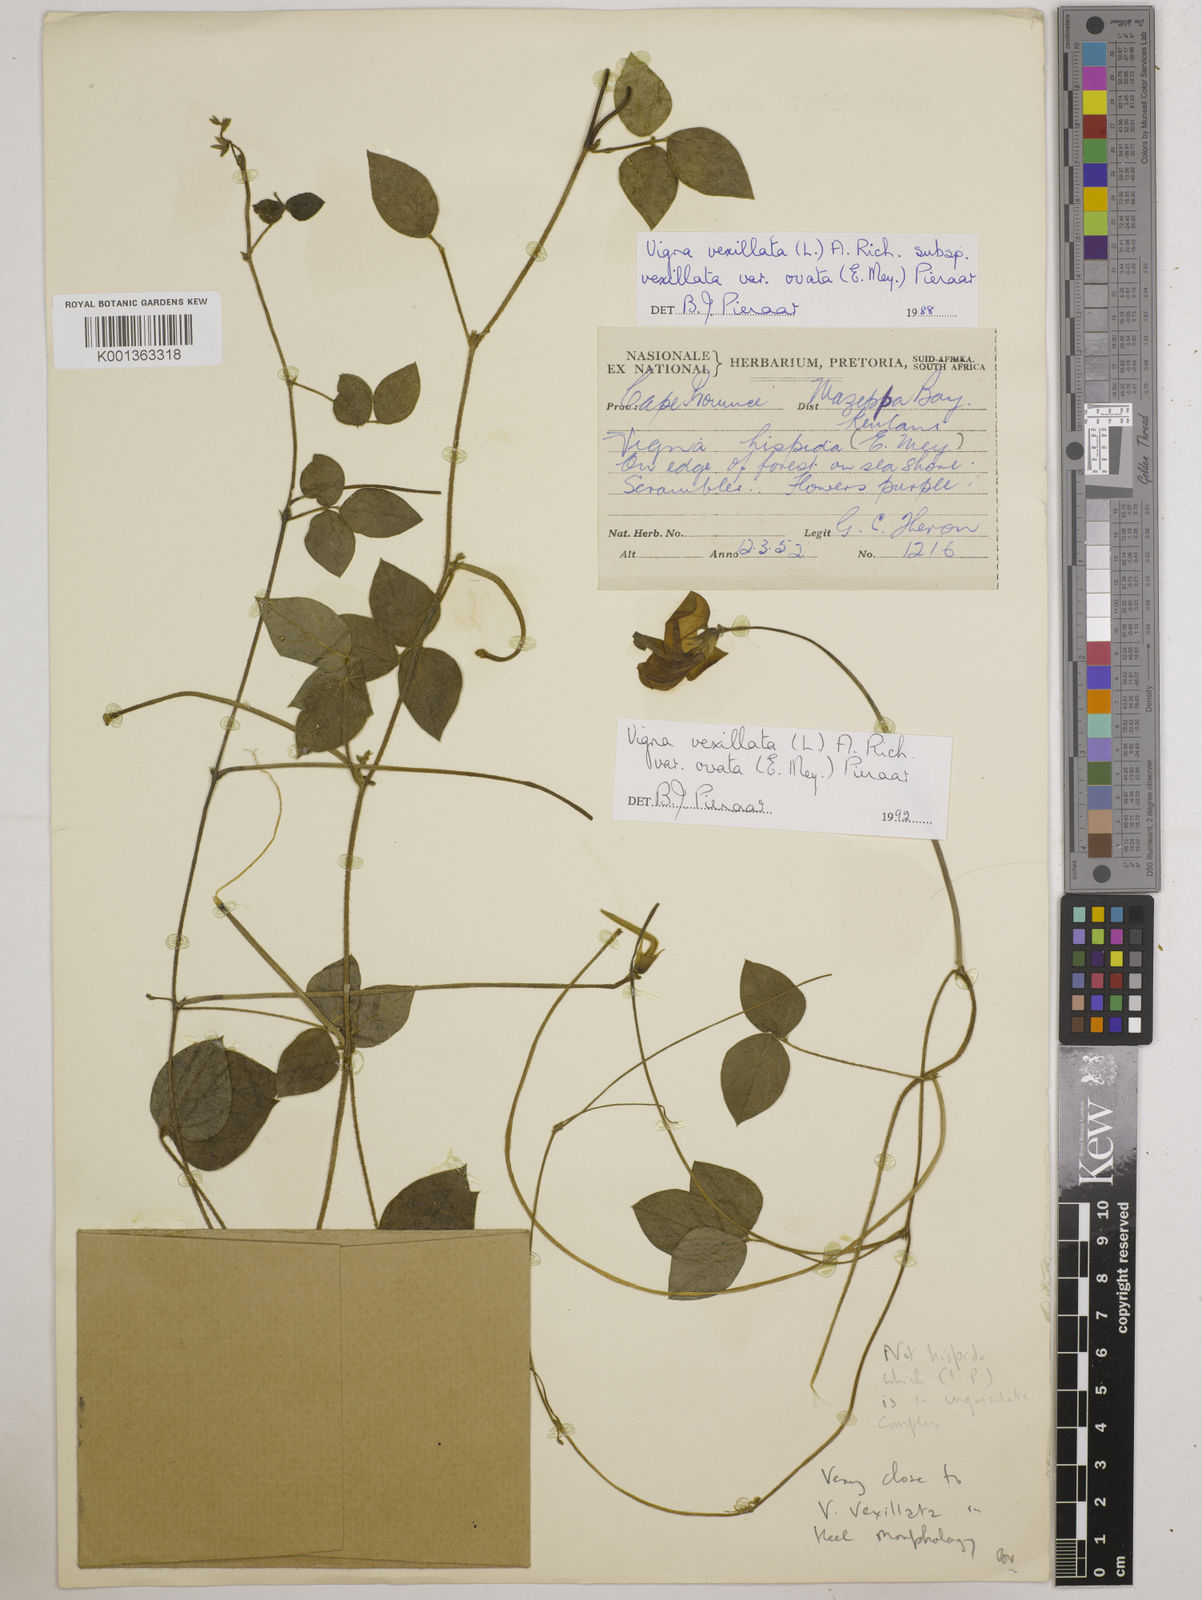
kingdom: Plantae
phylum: Tracheophyta
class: Magnoliopsida
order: Fabales
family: Fabaceae
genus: Vigna
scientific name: Vigna
